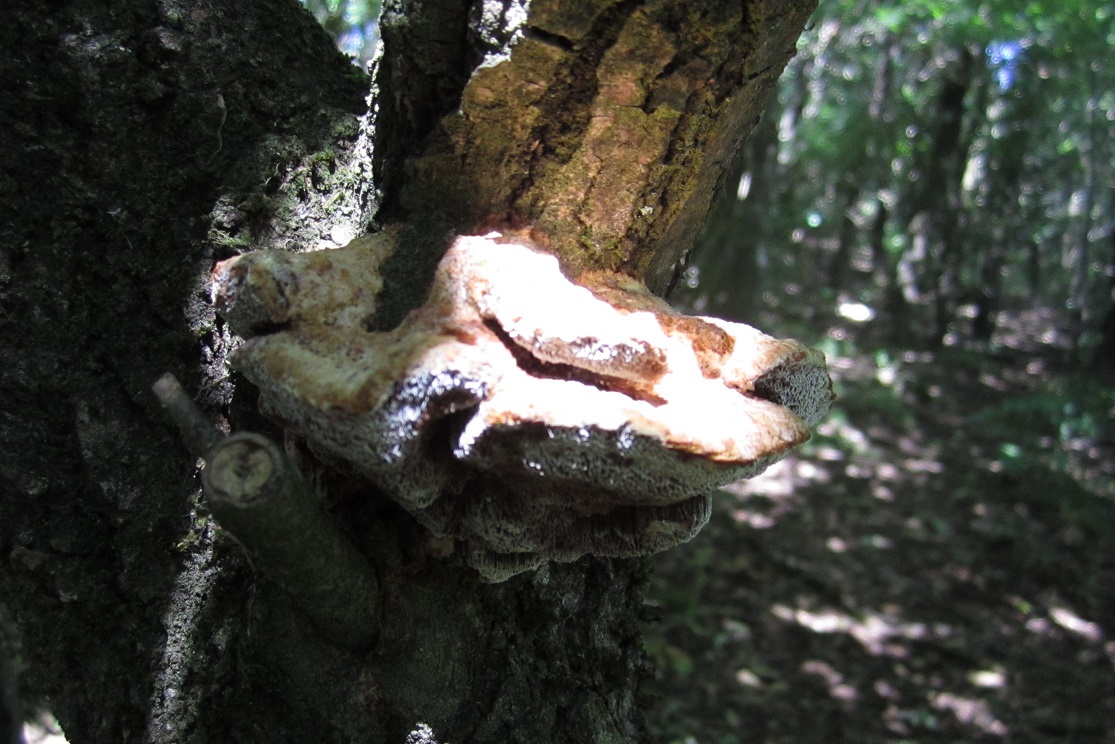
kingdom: Fungi
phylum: Basidiomycota
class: Agaricomycetes
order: Hymenochaetales
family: Hymenochaetaceae
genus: Inocutis
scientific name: Inocutis rheades
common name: ræve-spejlporesvamp
